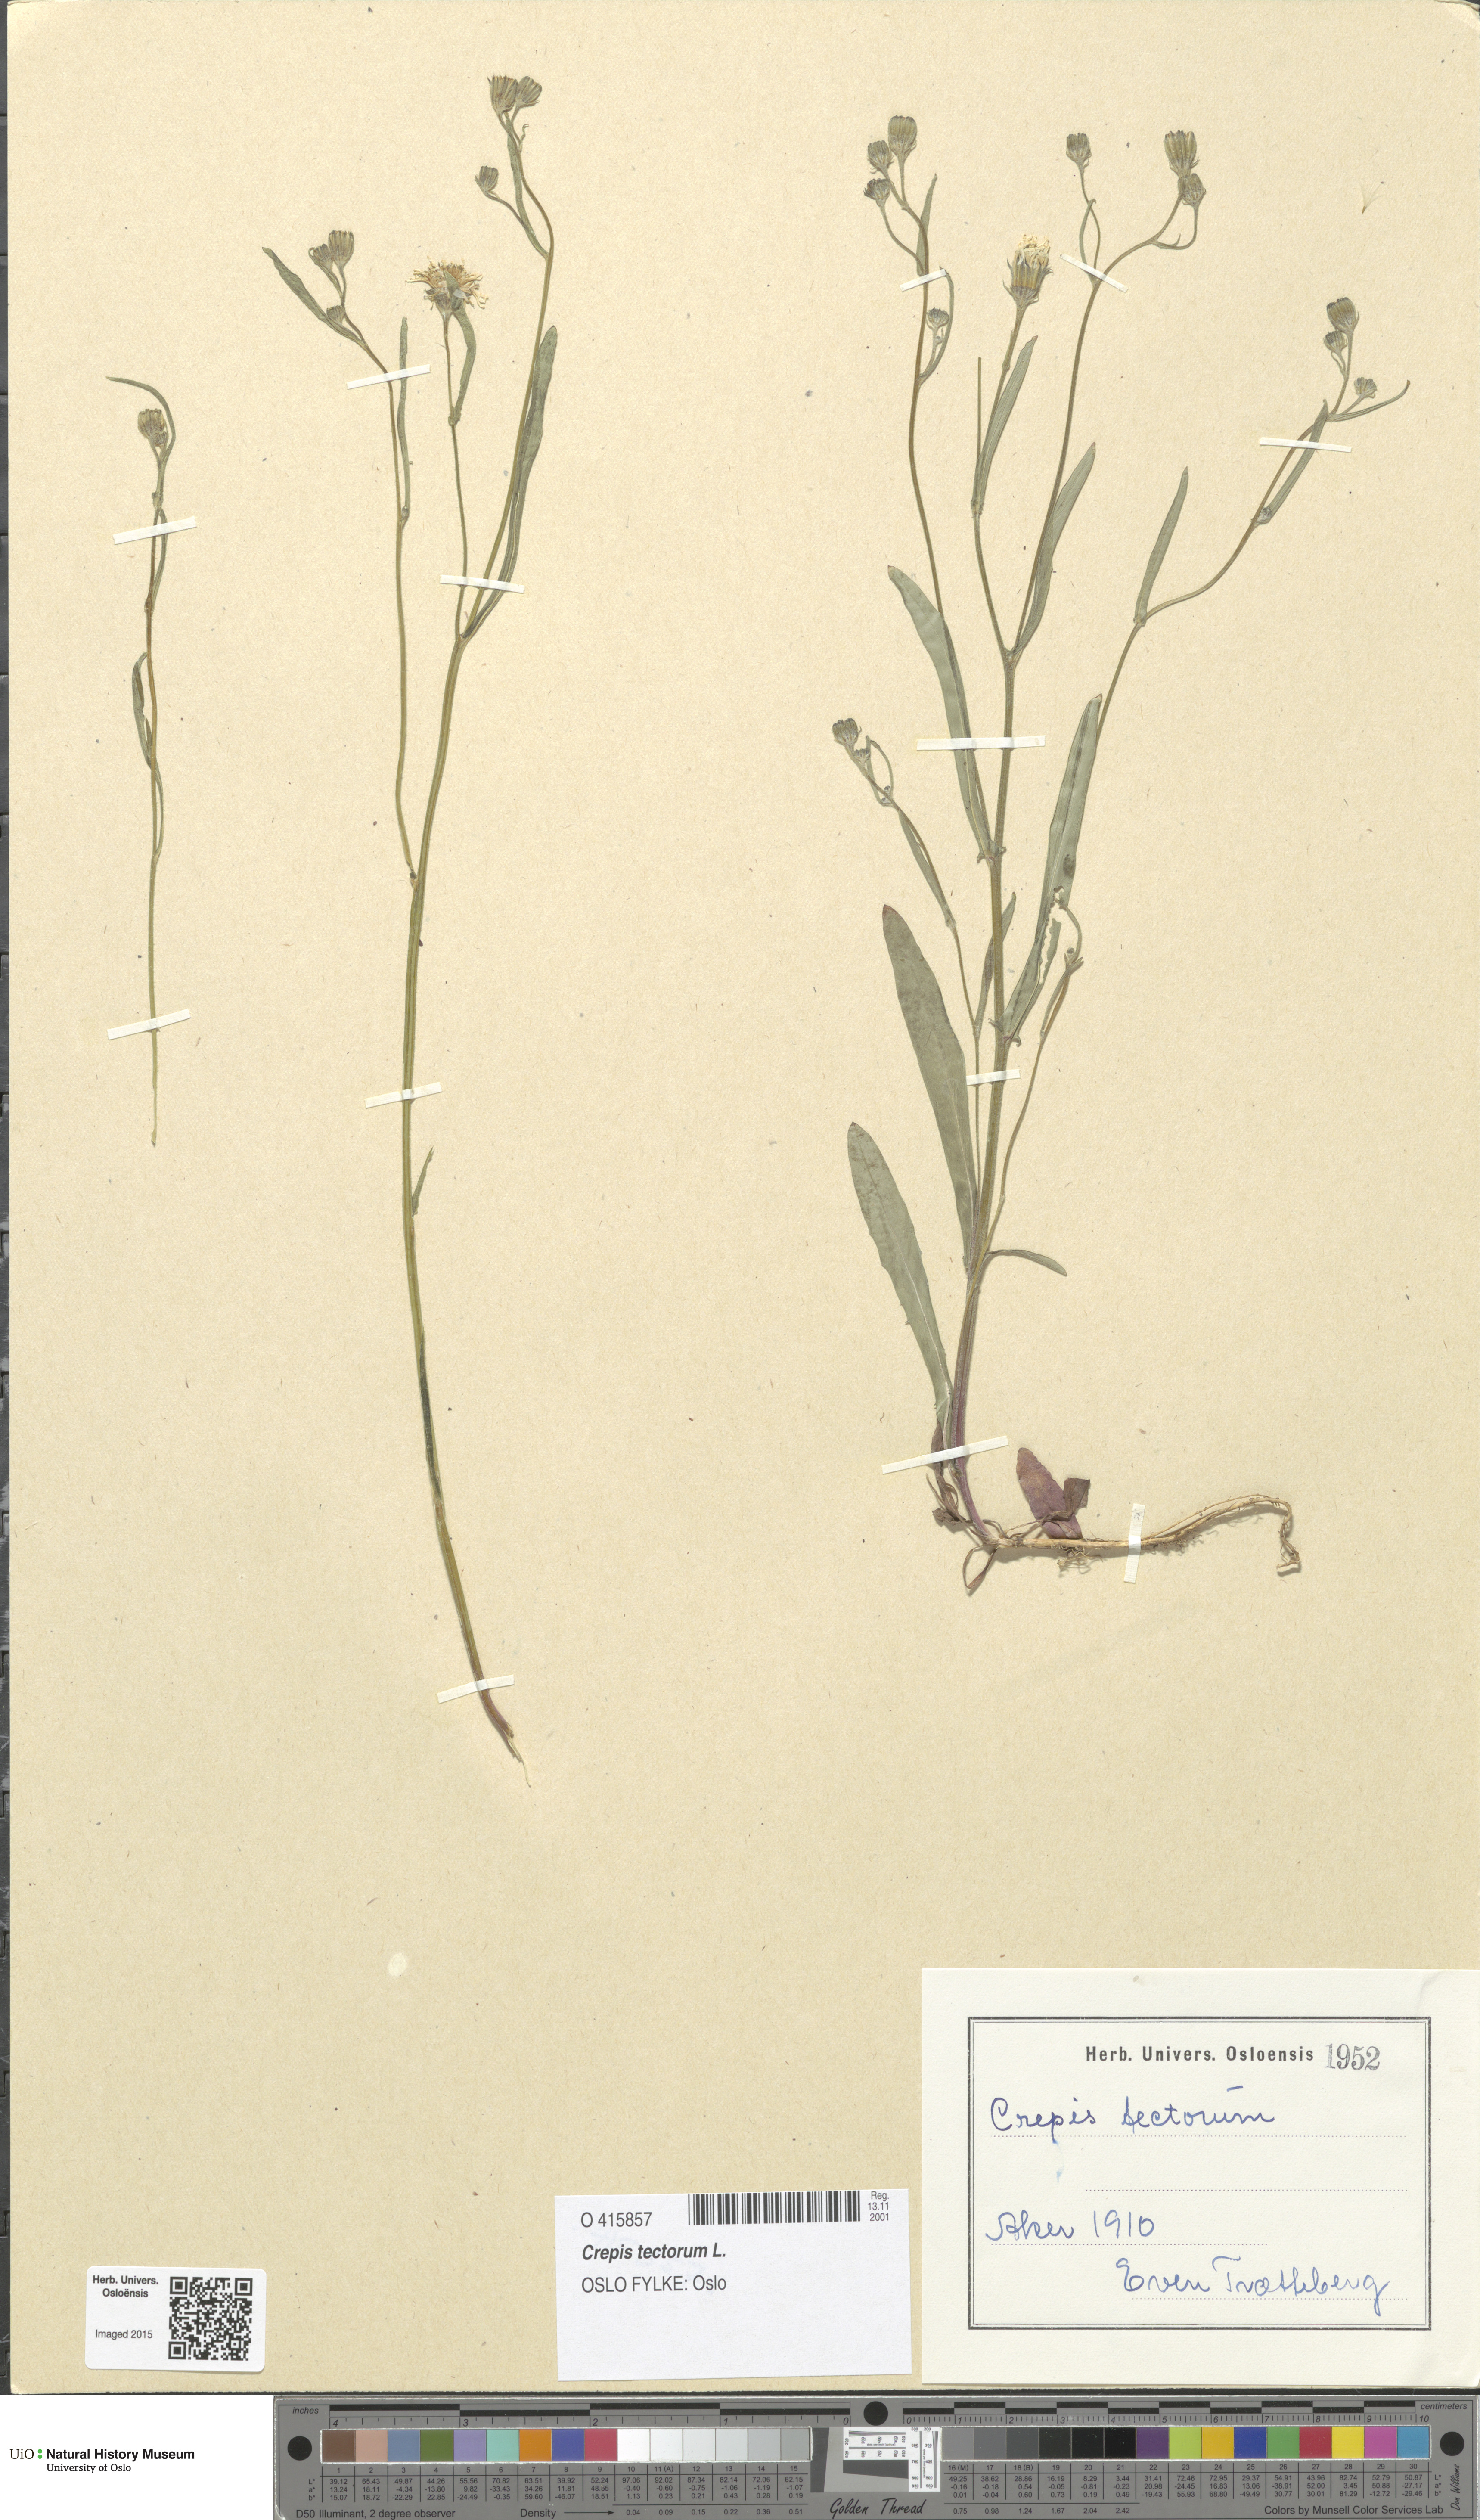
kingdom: Plantae
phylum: Tracheophyta
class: Magnoliopsida
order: Asterales
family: Asteraceae
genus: Crepis
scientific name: Crepis tectorum
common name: Narrow-leaved hawk's-beard
